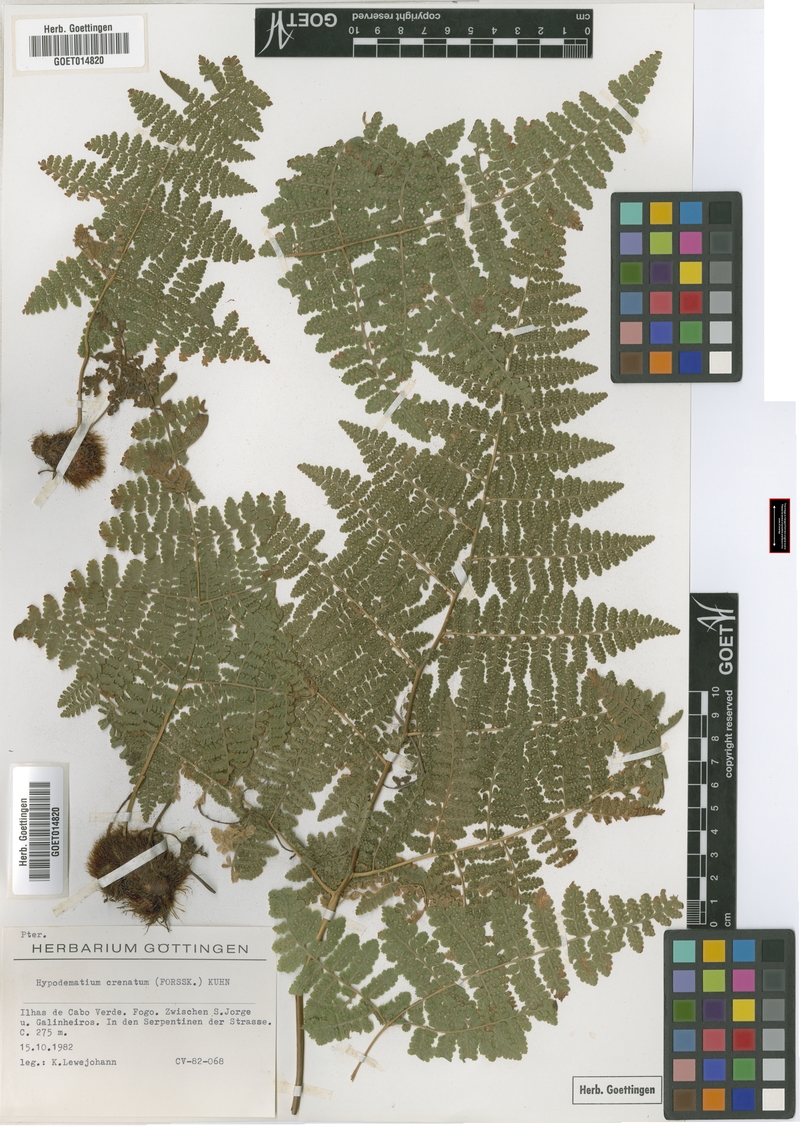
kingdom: Plantae
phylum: Tracheophyta
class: Polypodiopsida
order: Polypodiales
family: Hypodematiaceae
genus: Hypodematium
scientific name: Hypodematium chrysolepis
